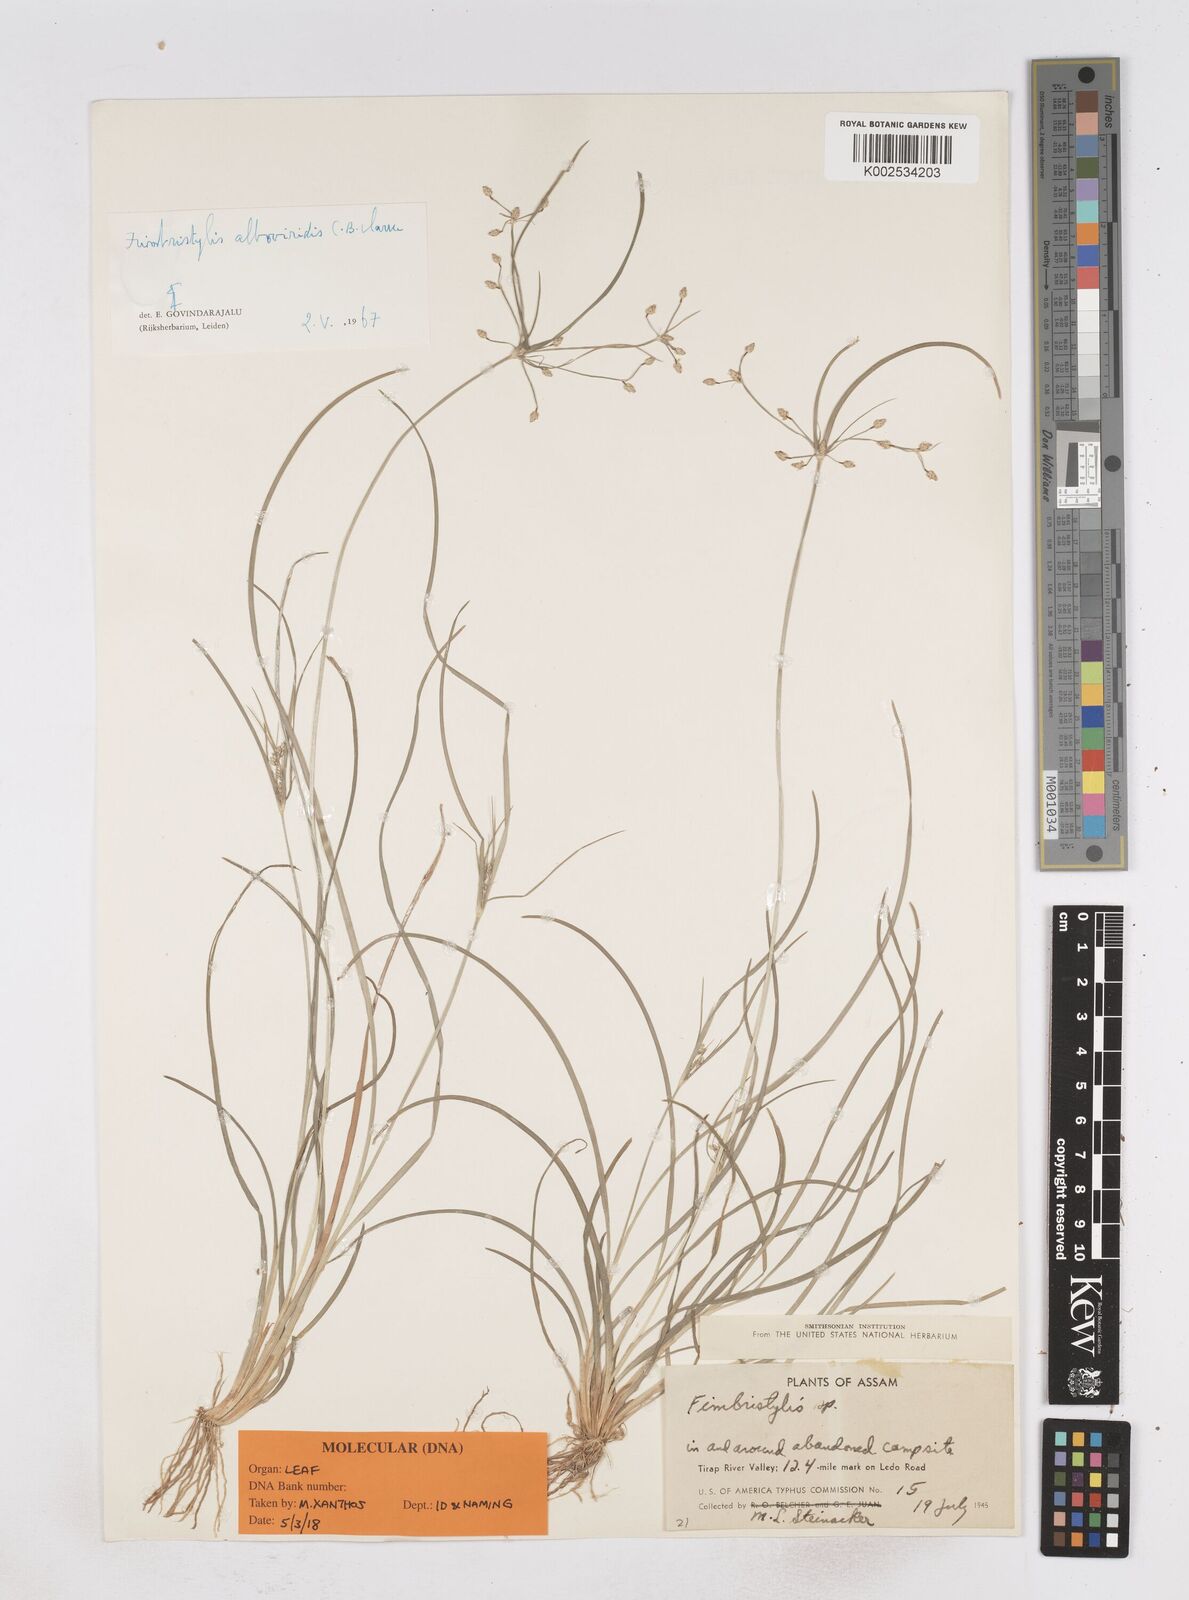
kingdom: Plantae
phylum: Tracheophyta
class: Liliopsida
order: Poales
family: Cyperaceae
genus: Fimbristylis
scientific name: Fimbristylis alboviridis
